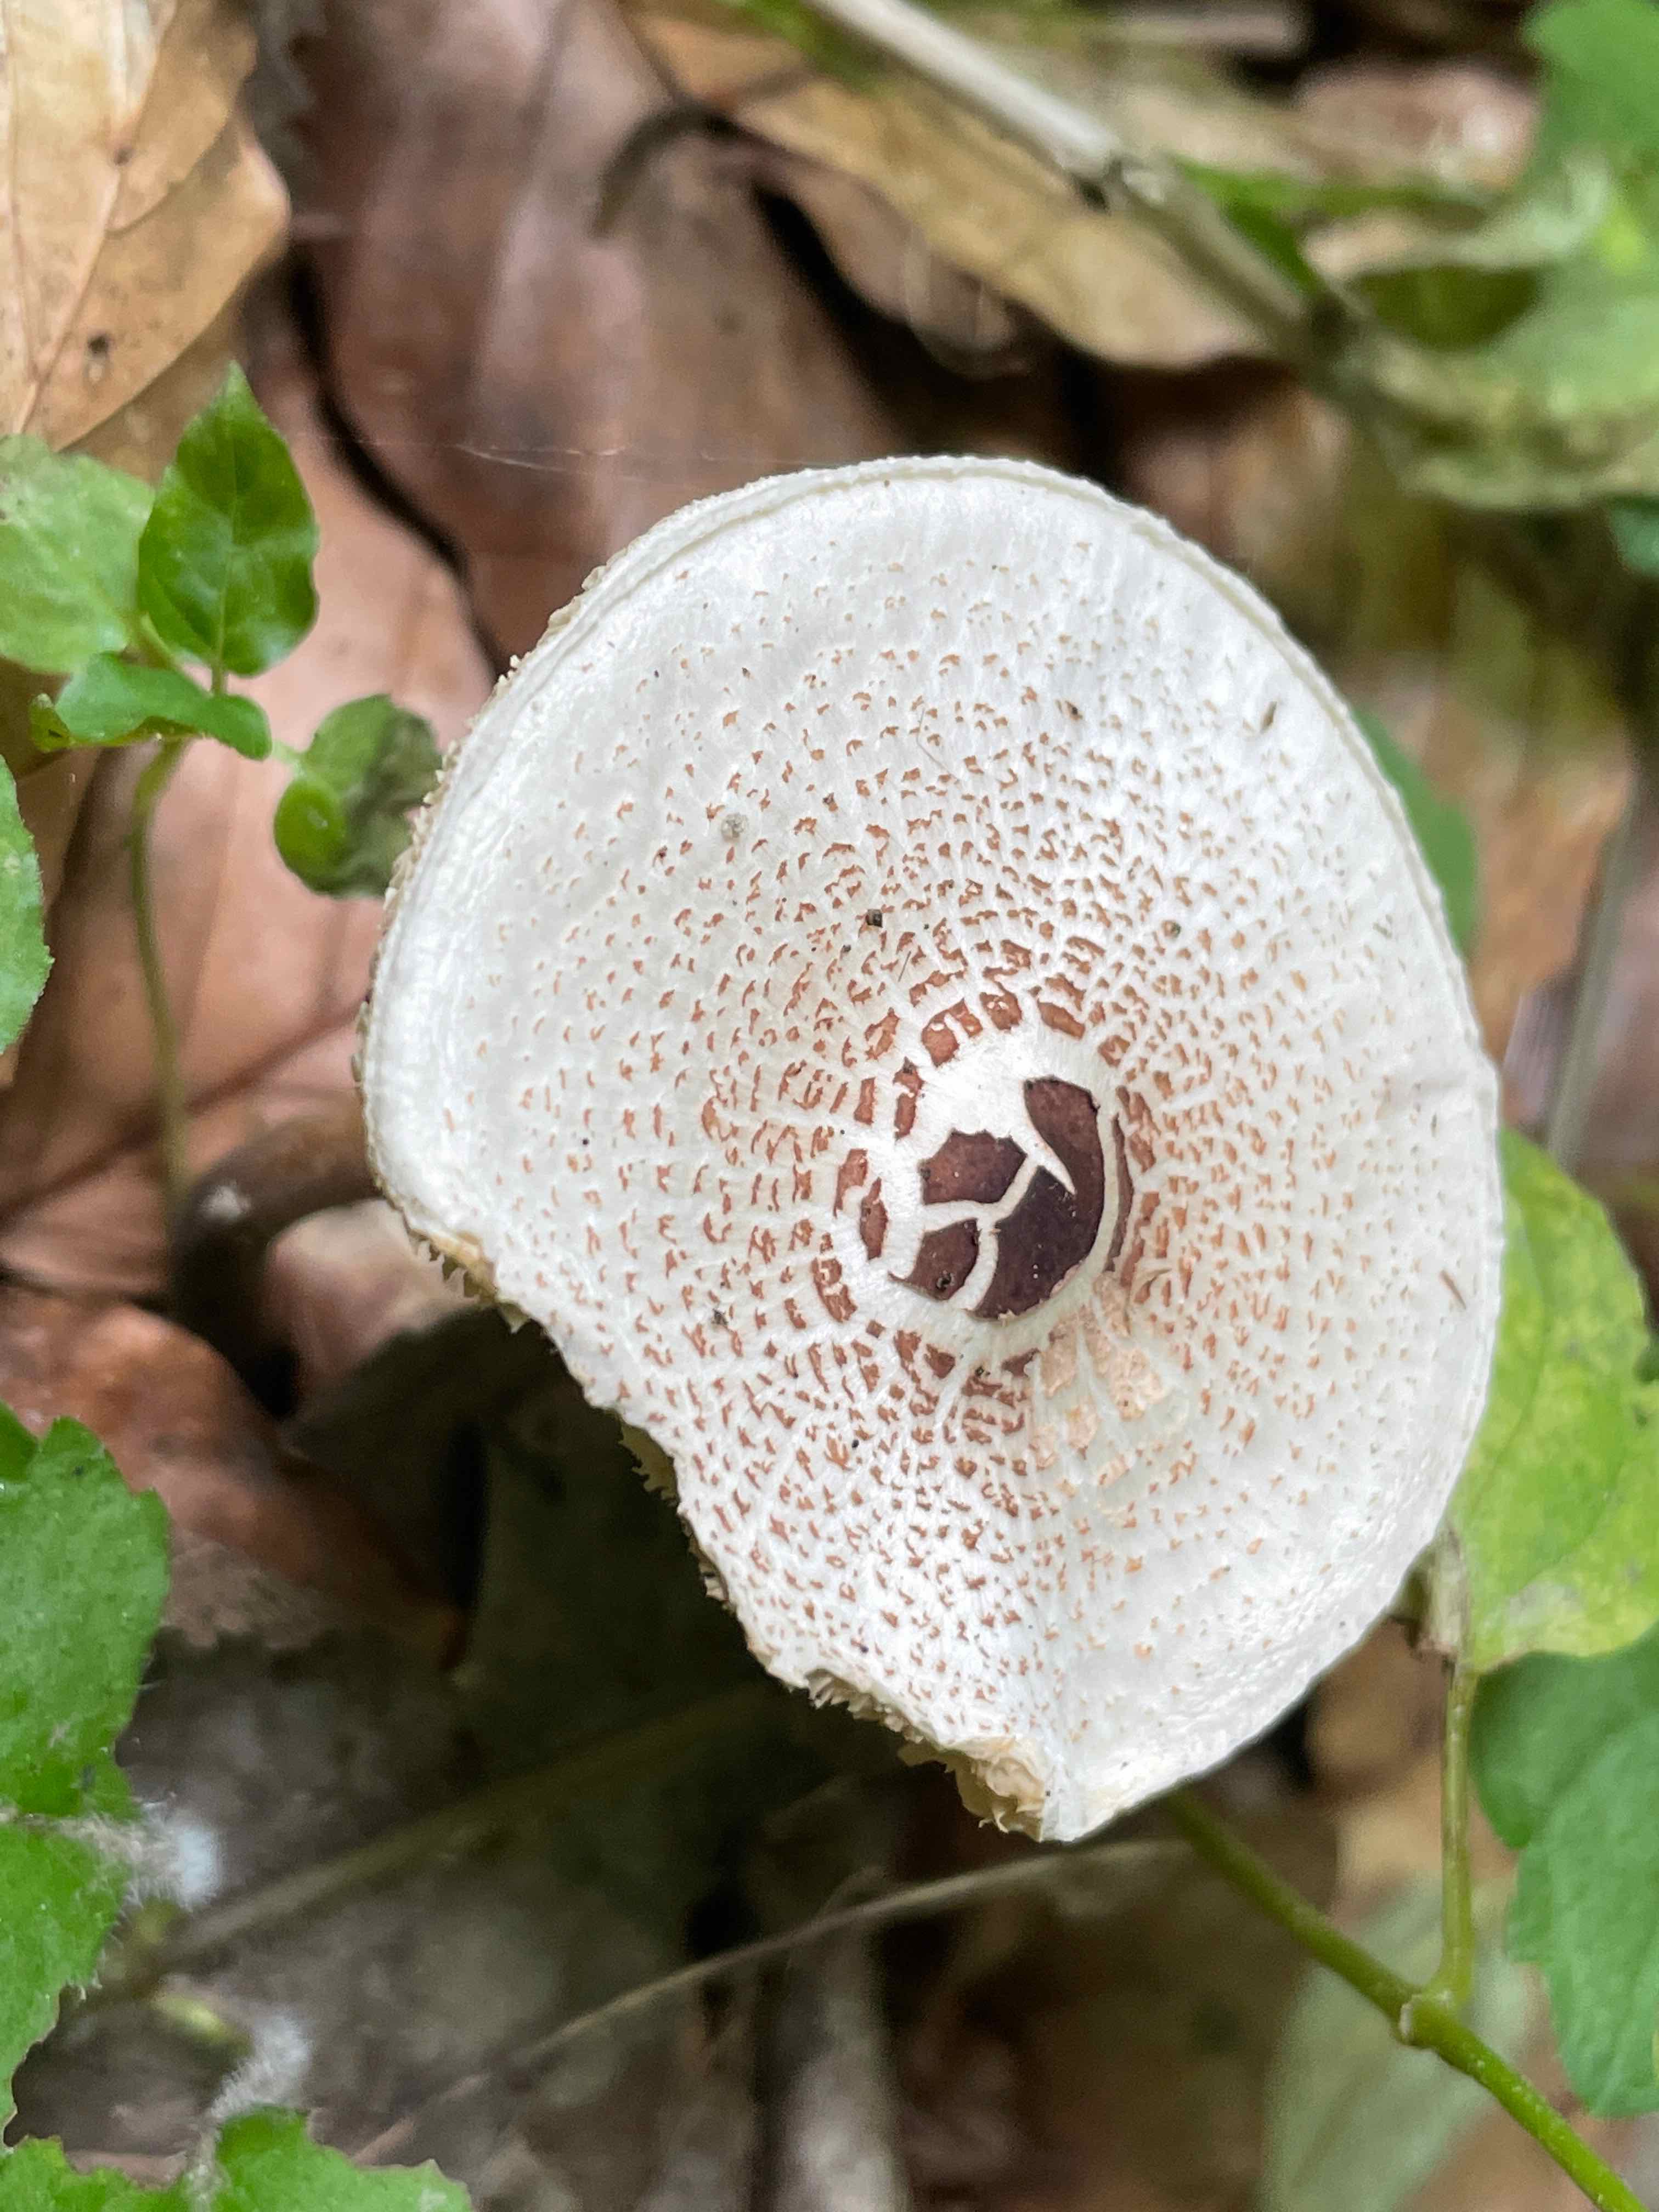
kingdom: Fungi
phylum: Basidiomycota
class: Agaricomycetes
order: Agaricales
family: Agaricaceae
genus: Lepiota
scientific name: Lepiota cristata
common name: stinkende parasolhat
